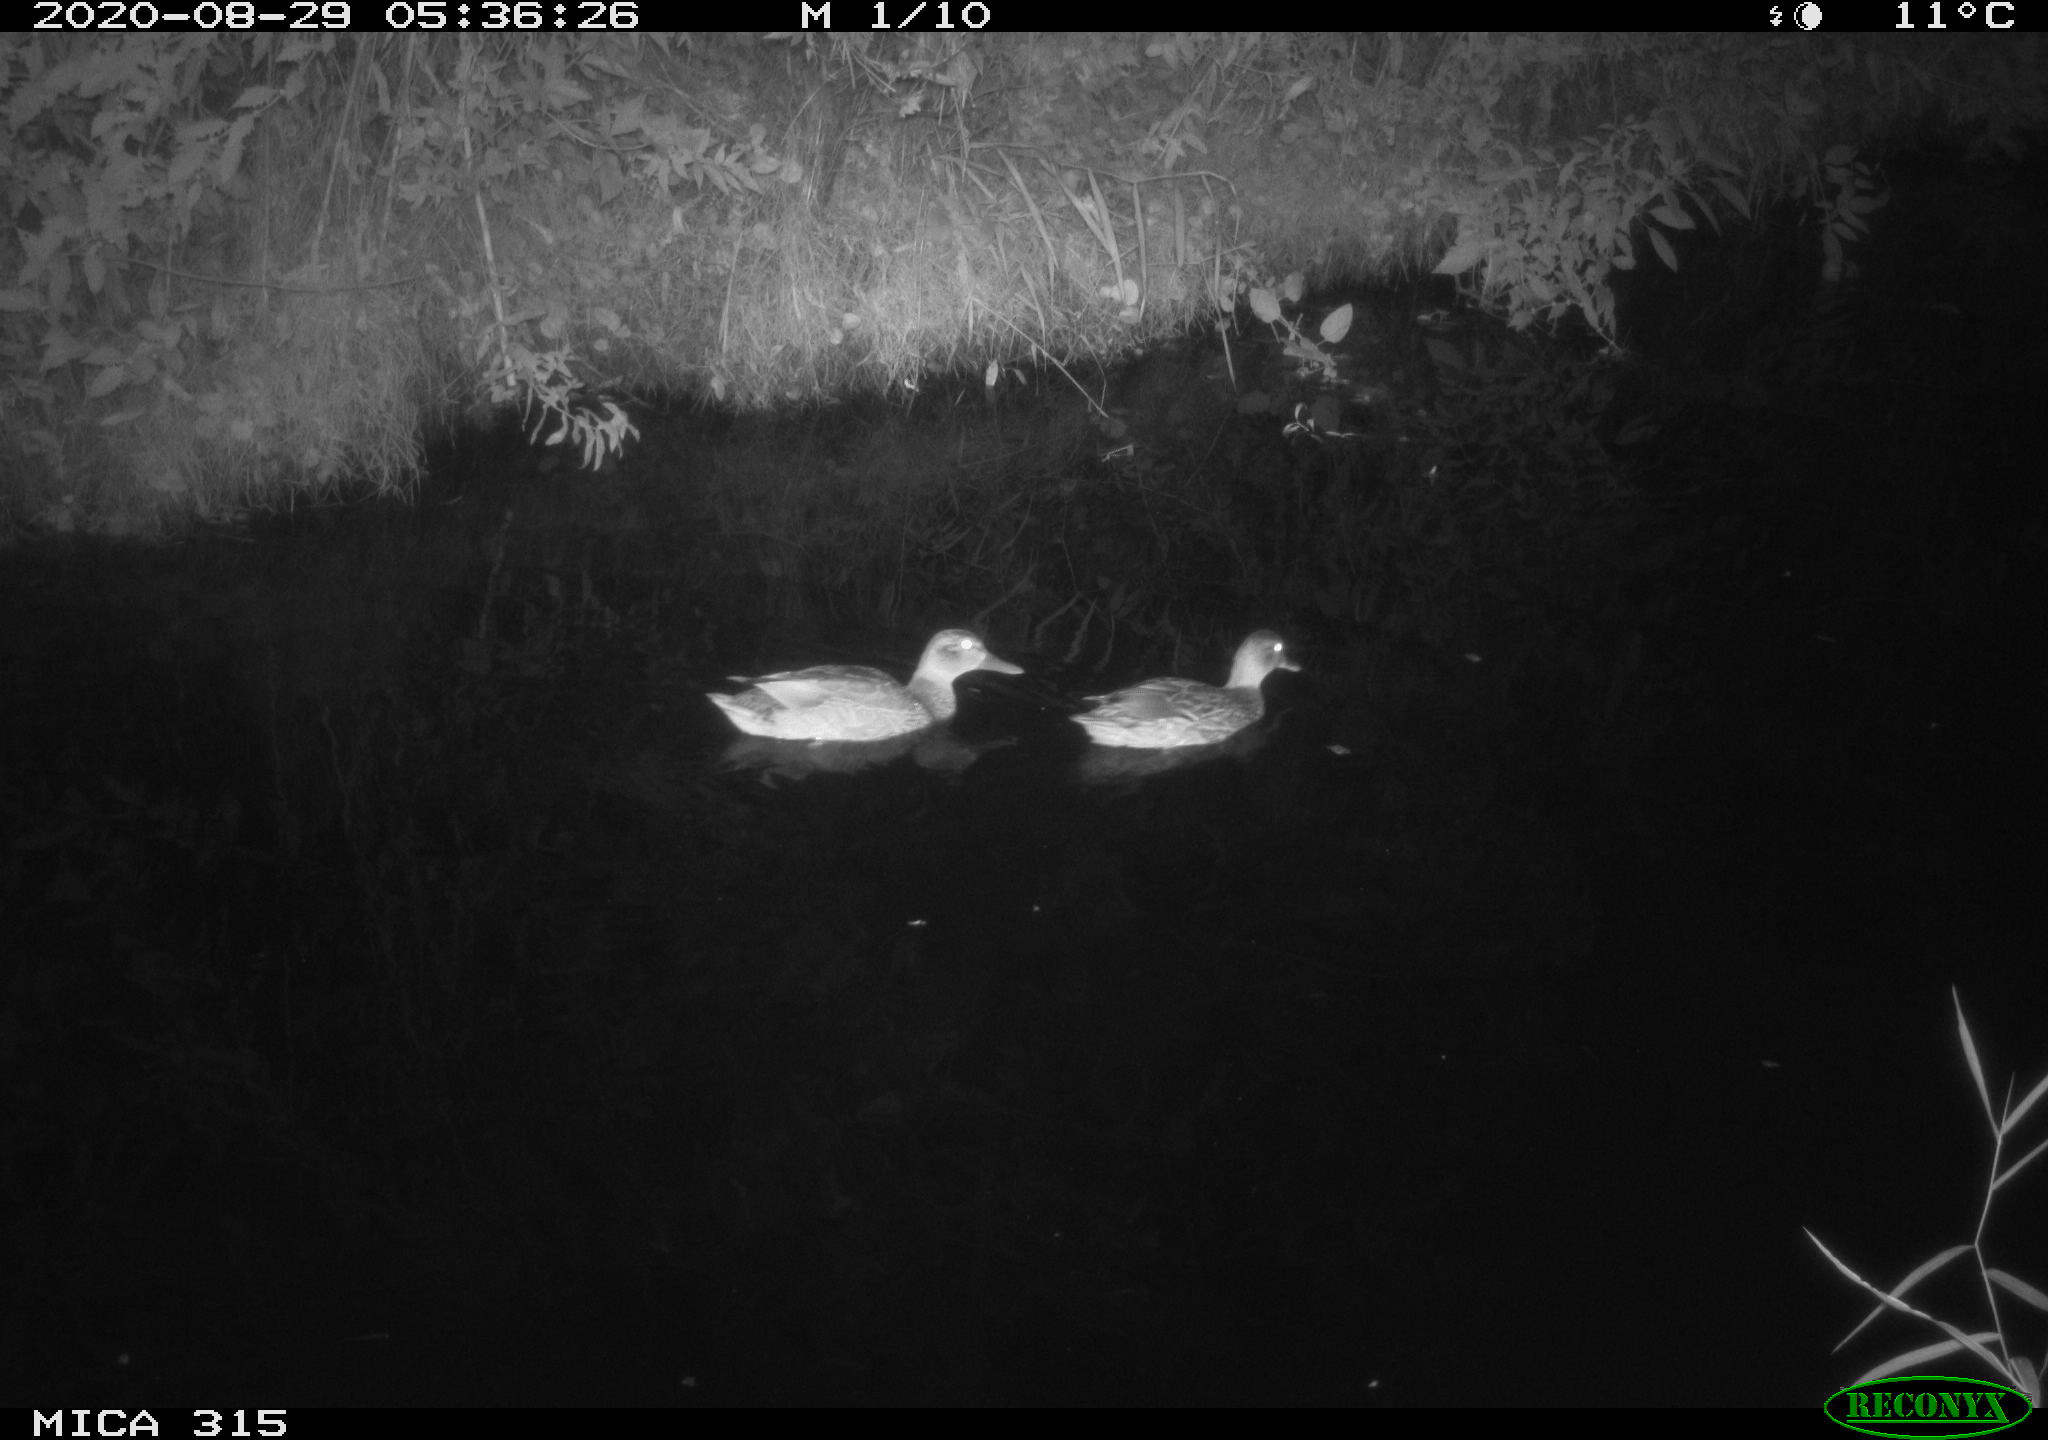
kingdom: Animalia
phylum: Chordata
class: Aves
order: Anseriformes
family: Anatidae
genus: Anas
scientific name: Anas platyrhynchos
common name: Mallard
